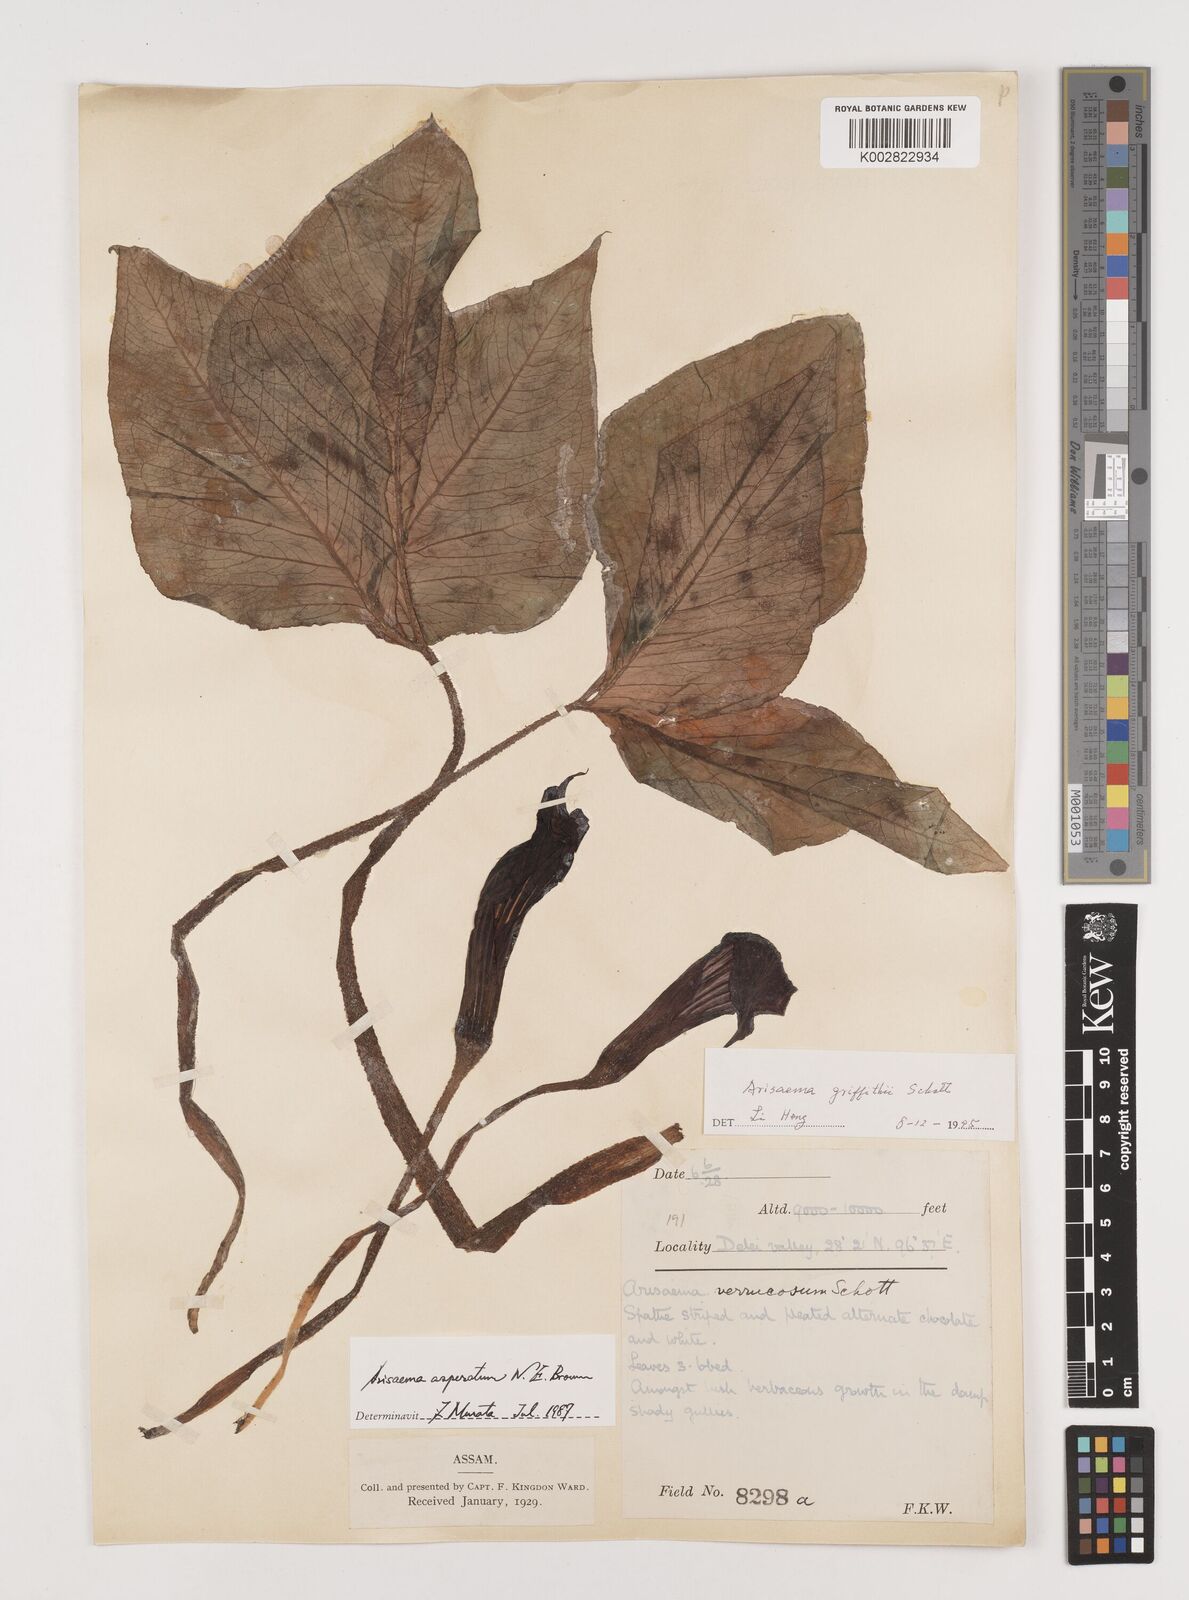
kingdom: Plantae
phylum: Tracheophyta
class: Liliopsida
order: Alismatales
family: Araceae
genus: Arisaema
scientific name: Arisaema griffithii
